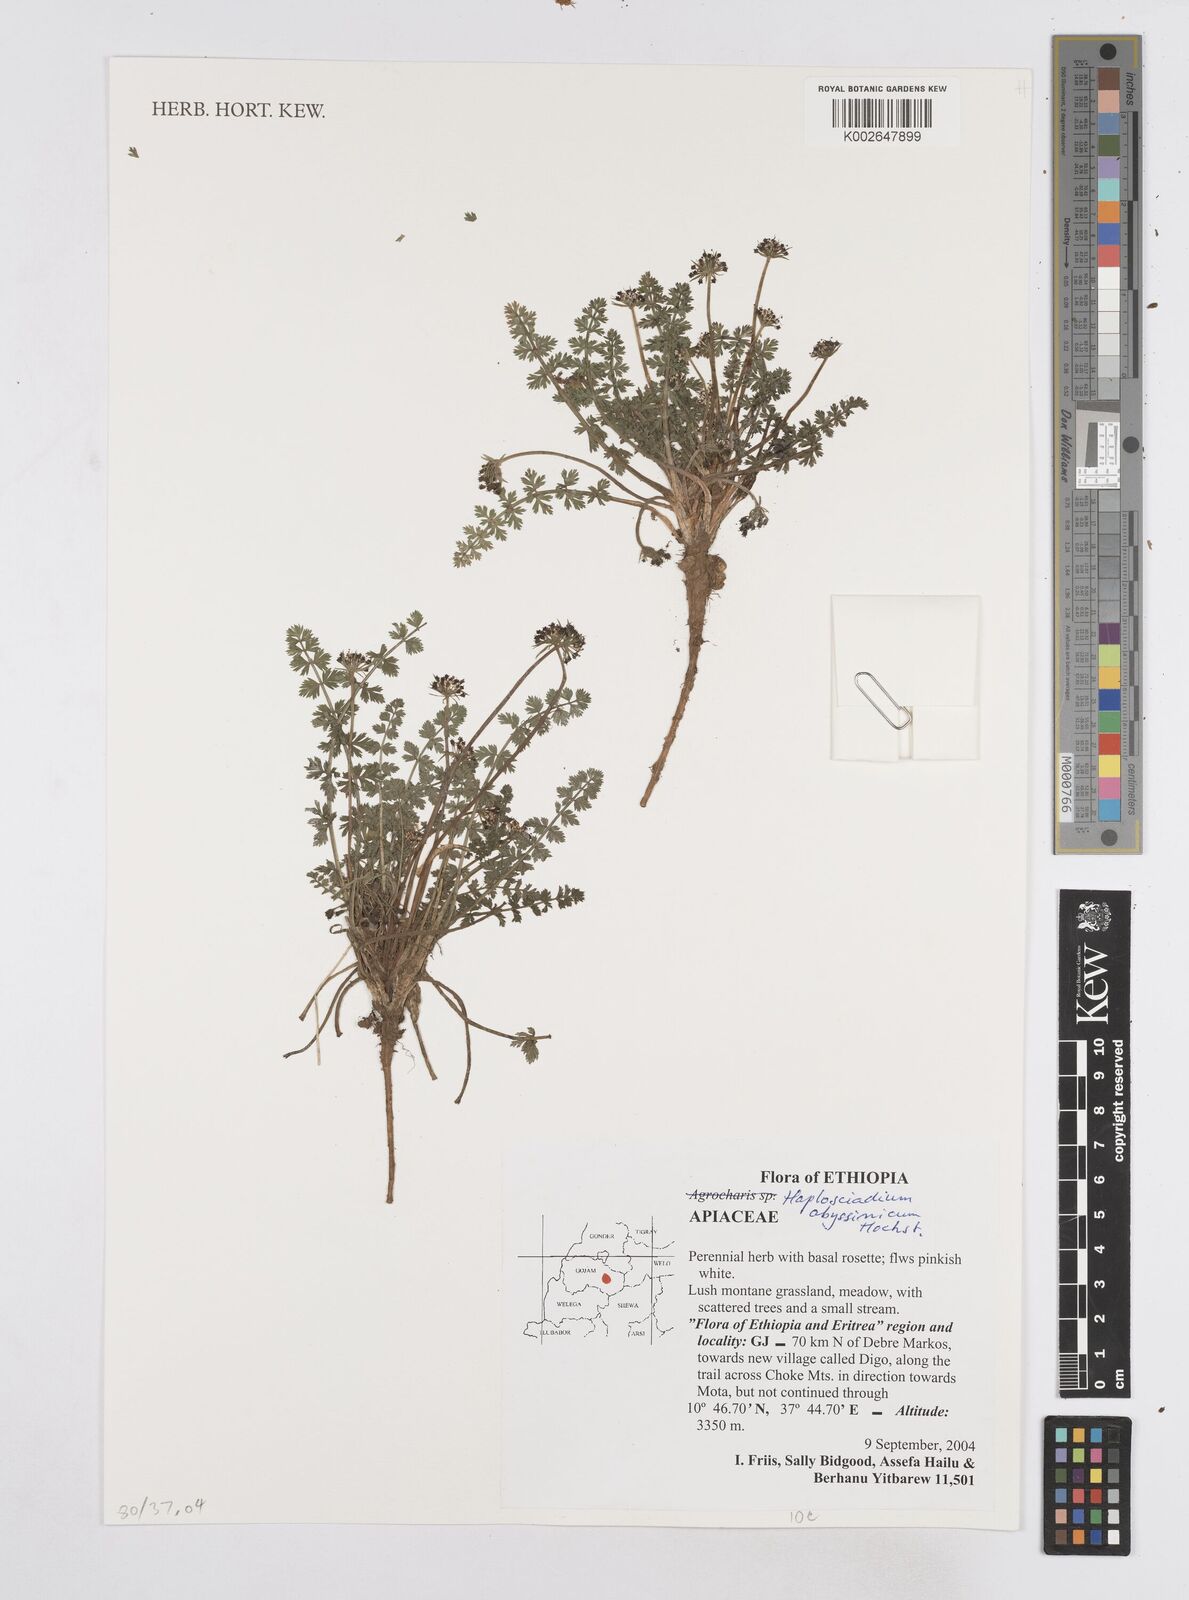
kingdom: Plantae
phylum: Tracheophyta
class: Magnoliopsida
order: Apiales
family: Apiaceae
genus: Haplosciadium
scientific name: Haplosciadium abyssinicum
